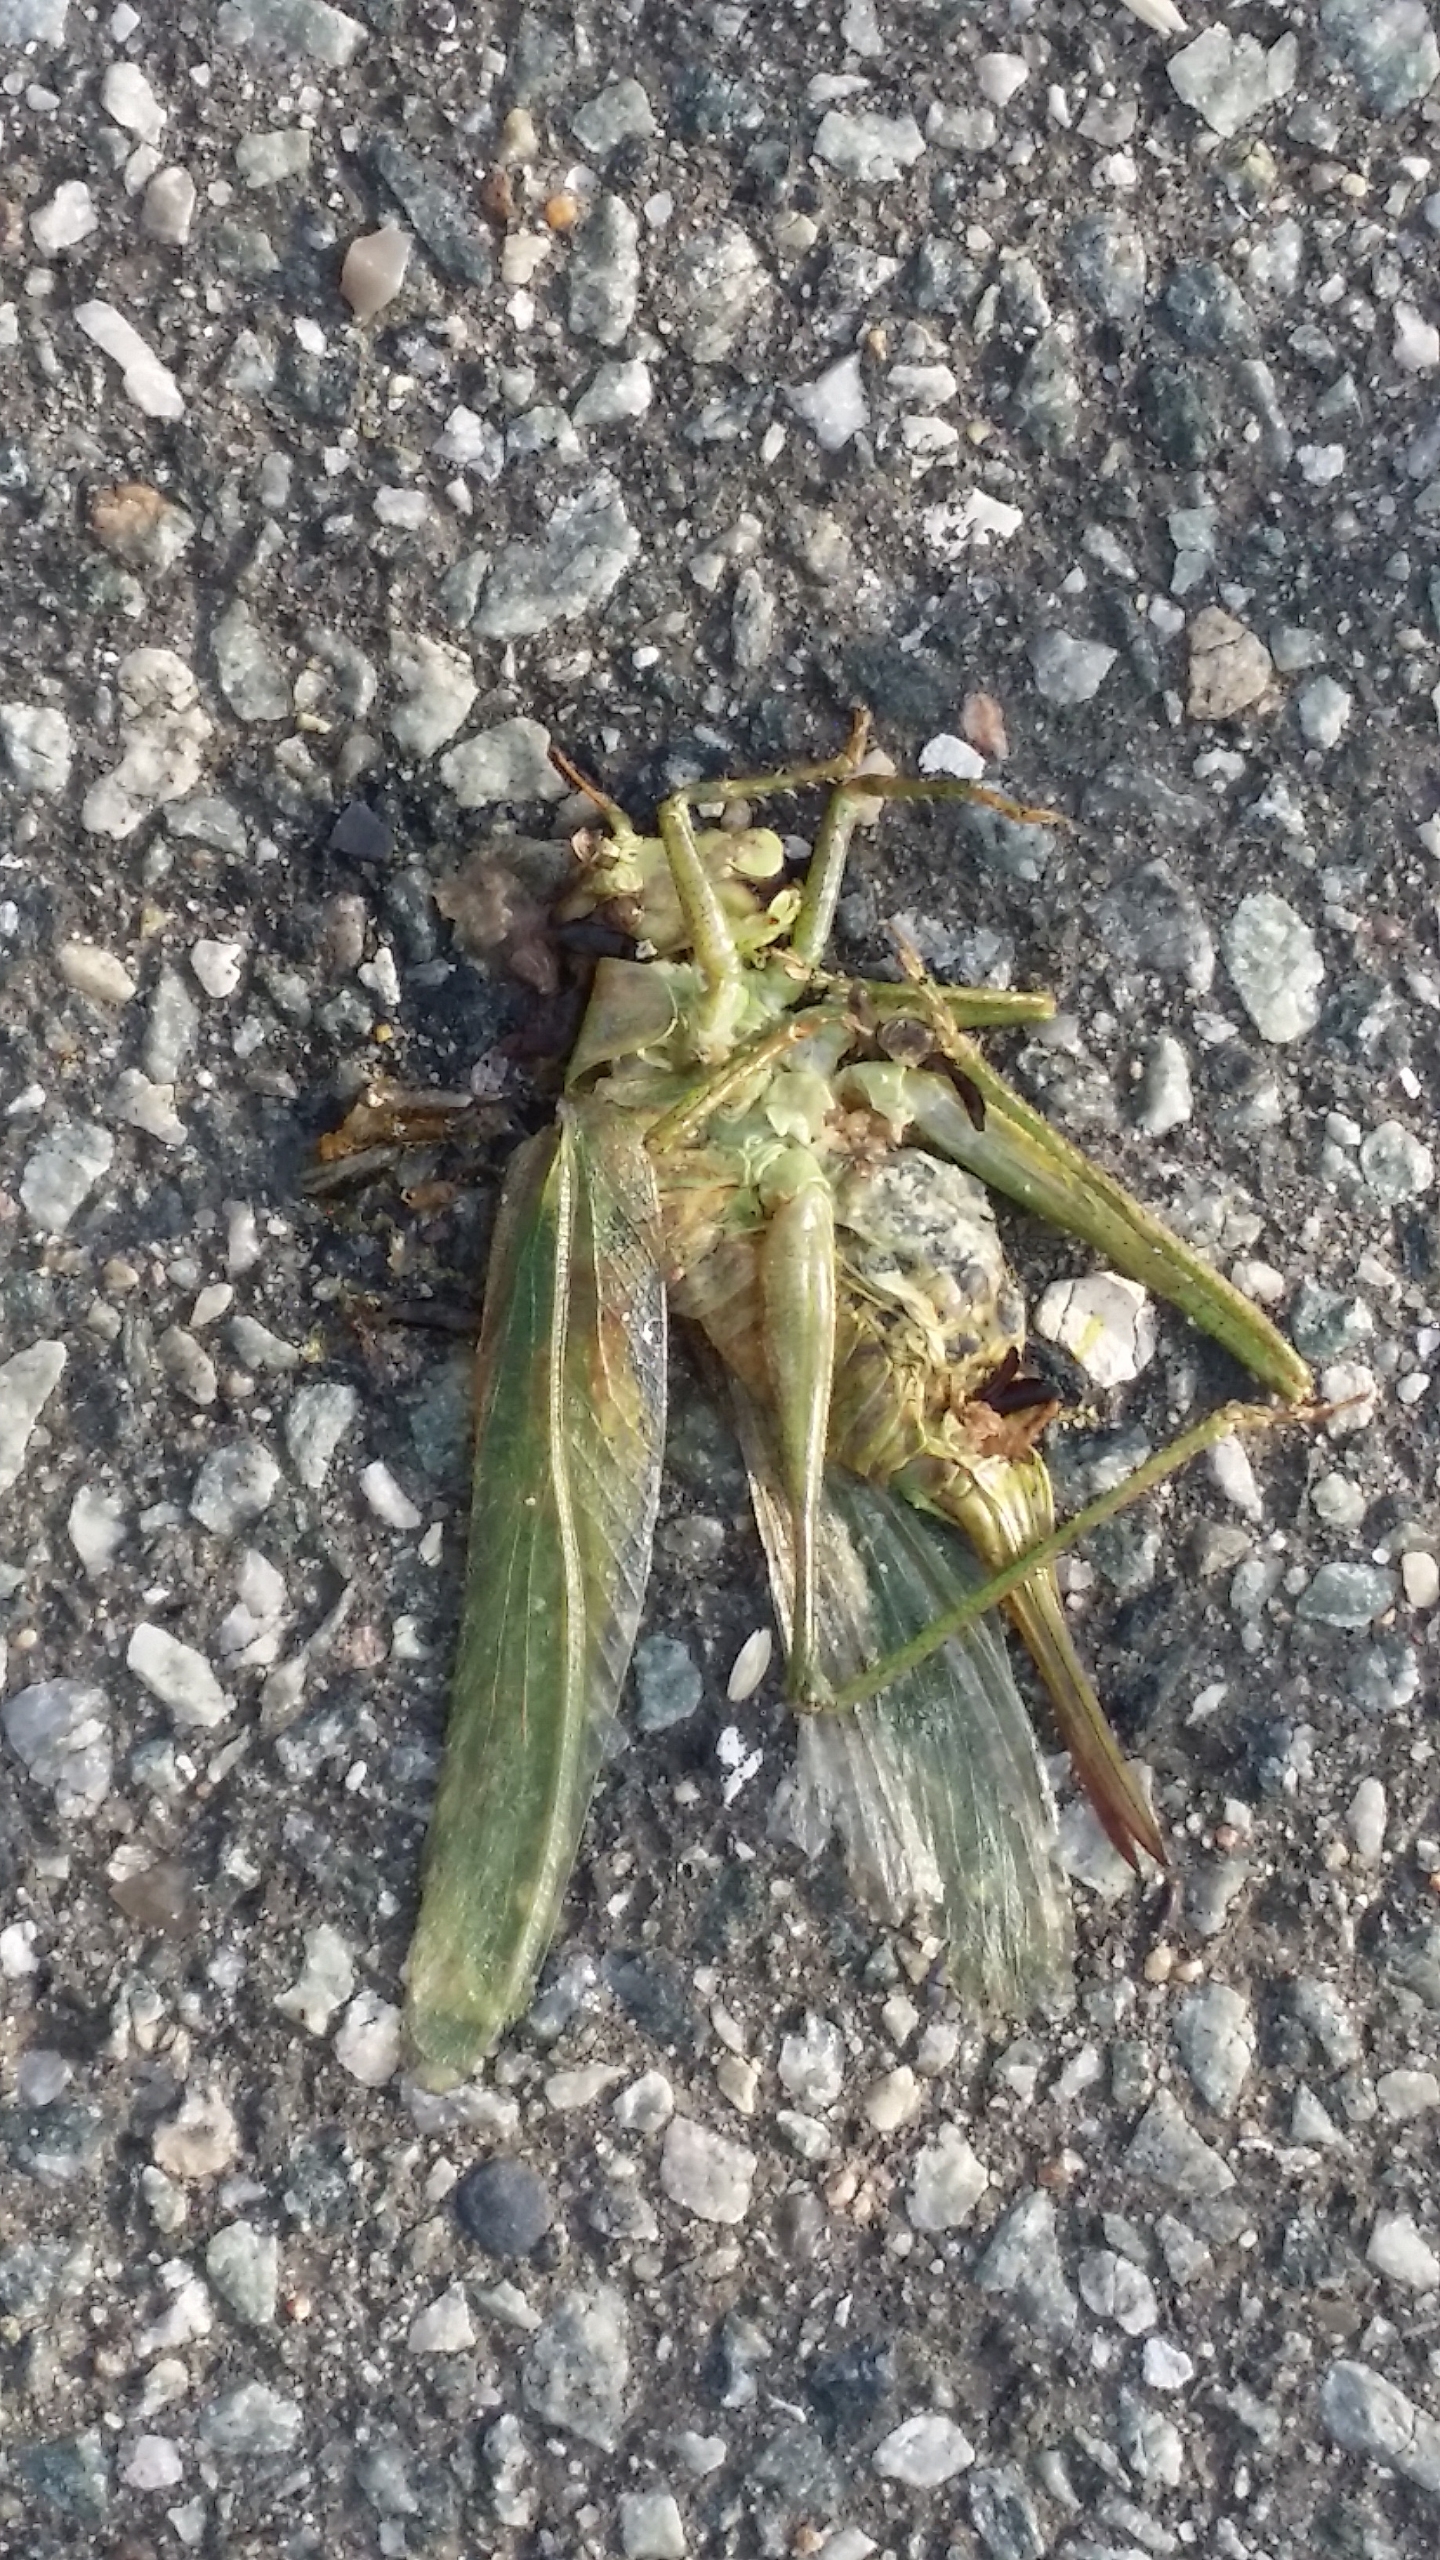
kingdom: Animalia
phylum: Arthropoda
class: Insecta
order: Orthoptera
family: Tettigoniidae
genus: Tettigonia
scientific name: Tettigonia viridissima
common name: Stor grøn løvgræshoppe
